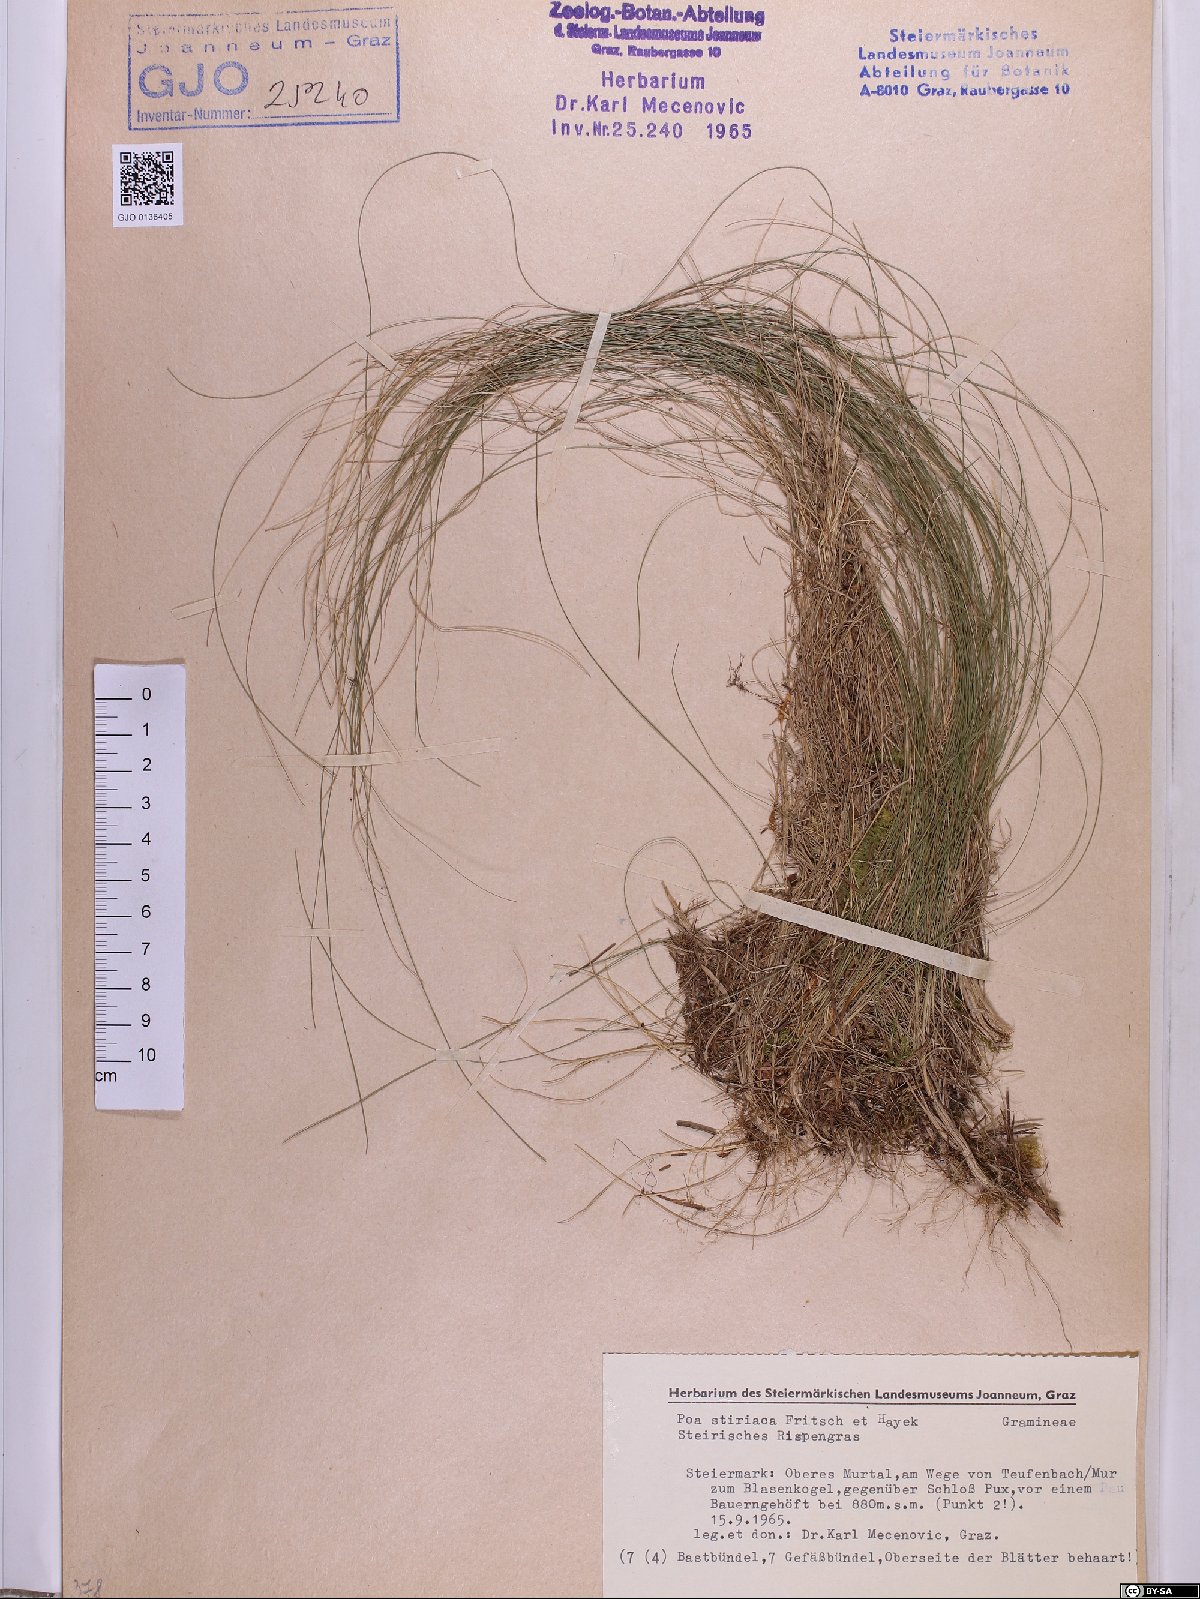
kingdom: Plantae
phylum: Tracheophyta
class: Liliopsida
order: Poales
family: Poaceae
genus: Poa
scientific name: Poa stiriaca
